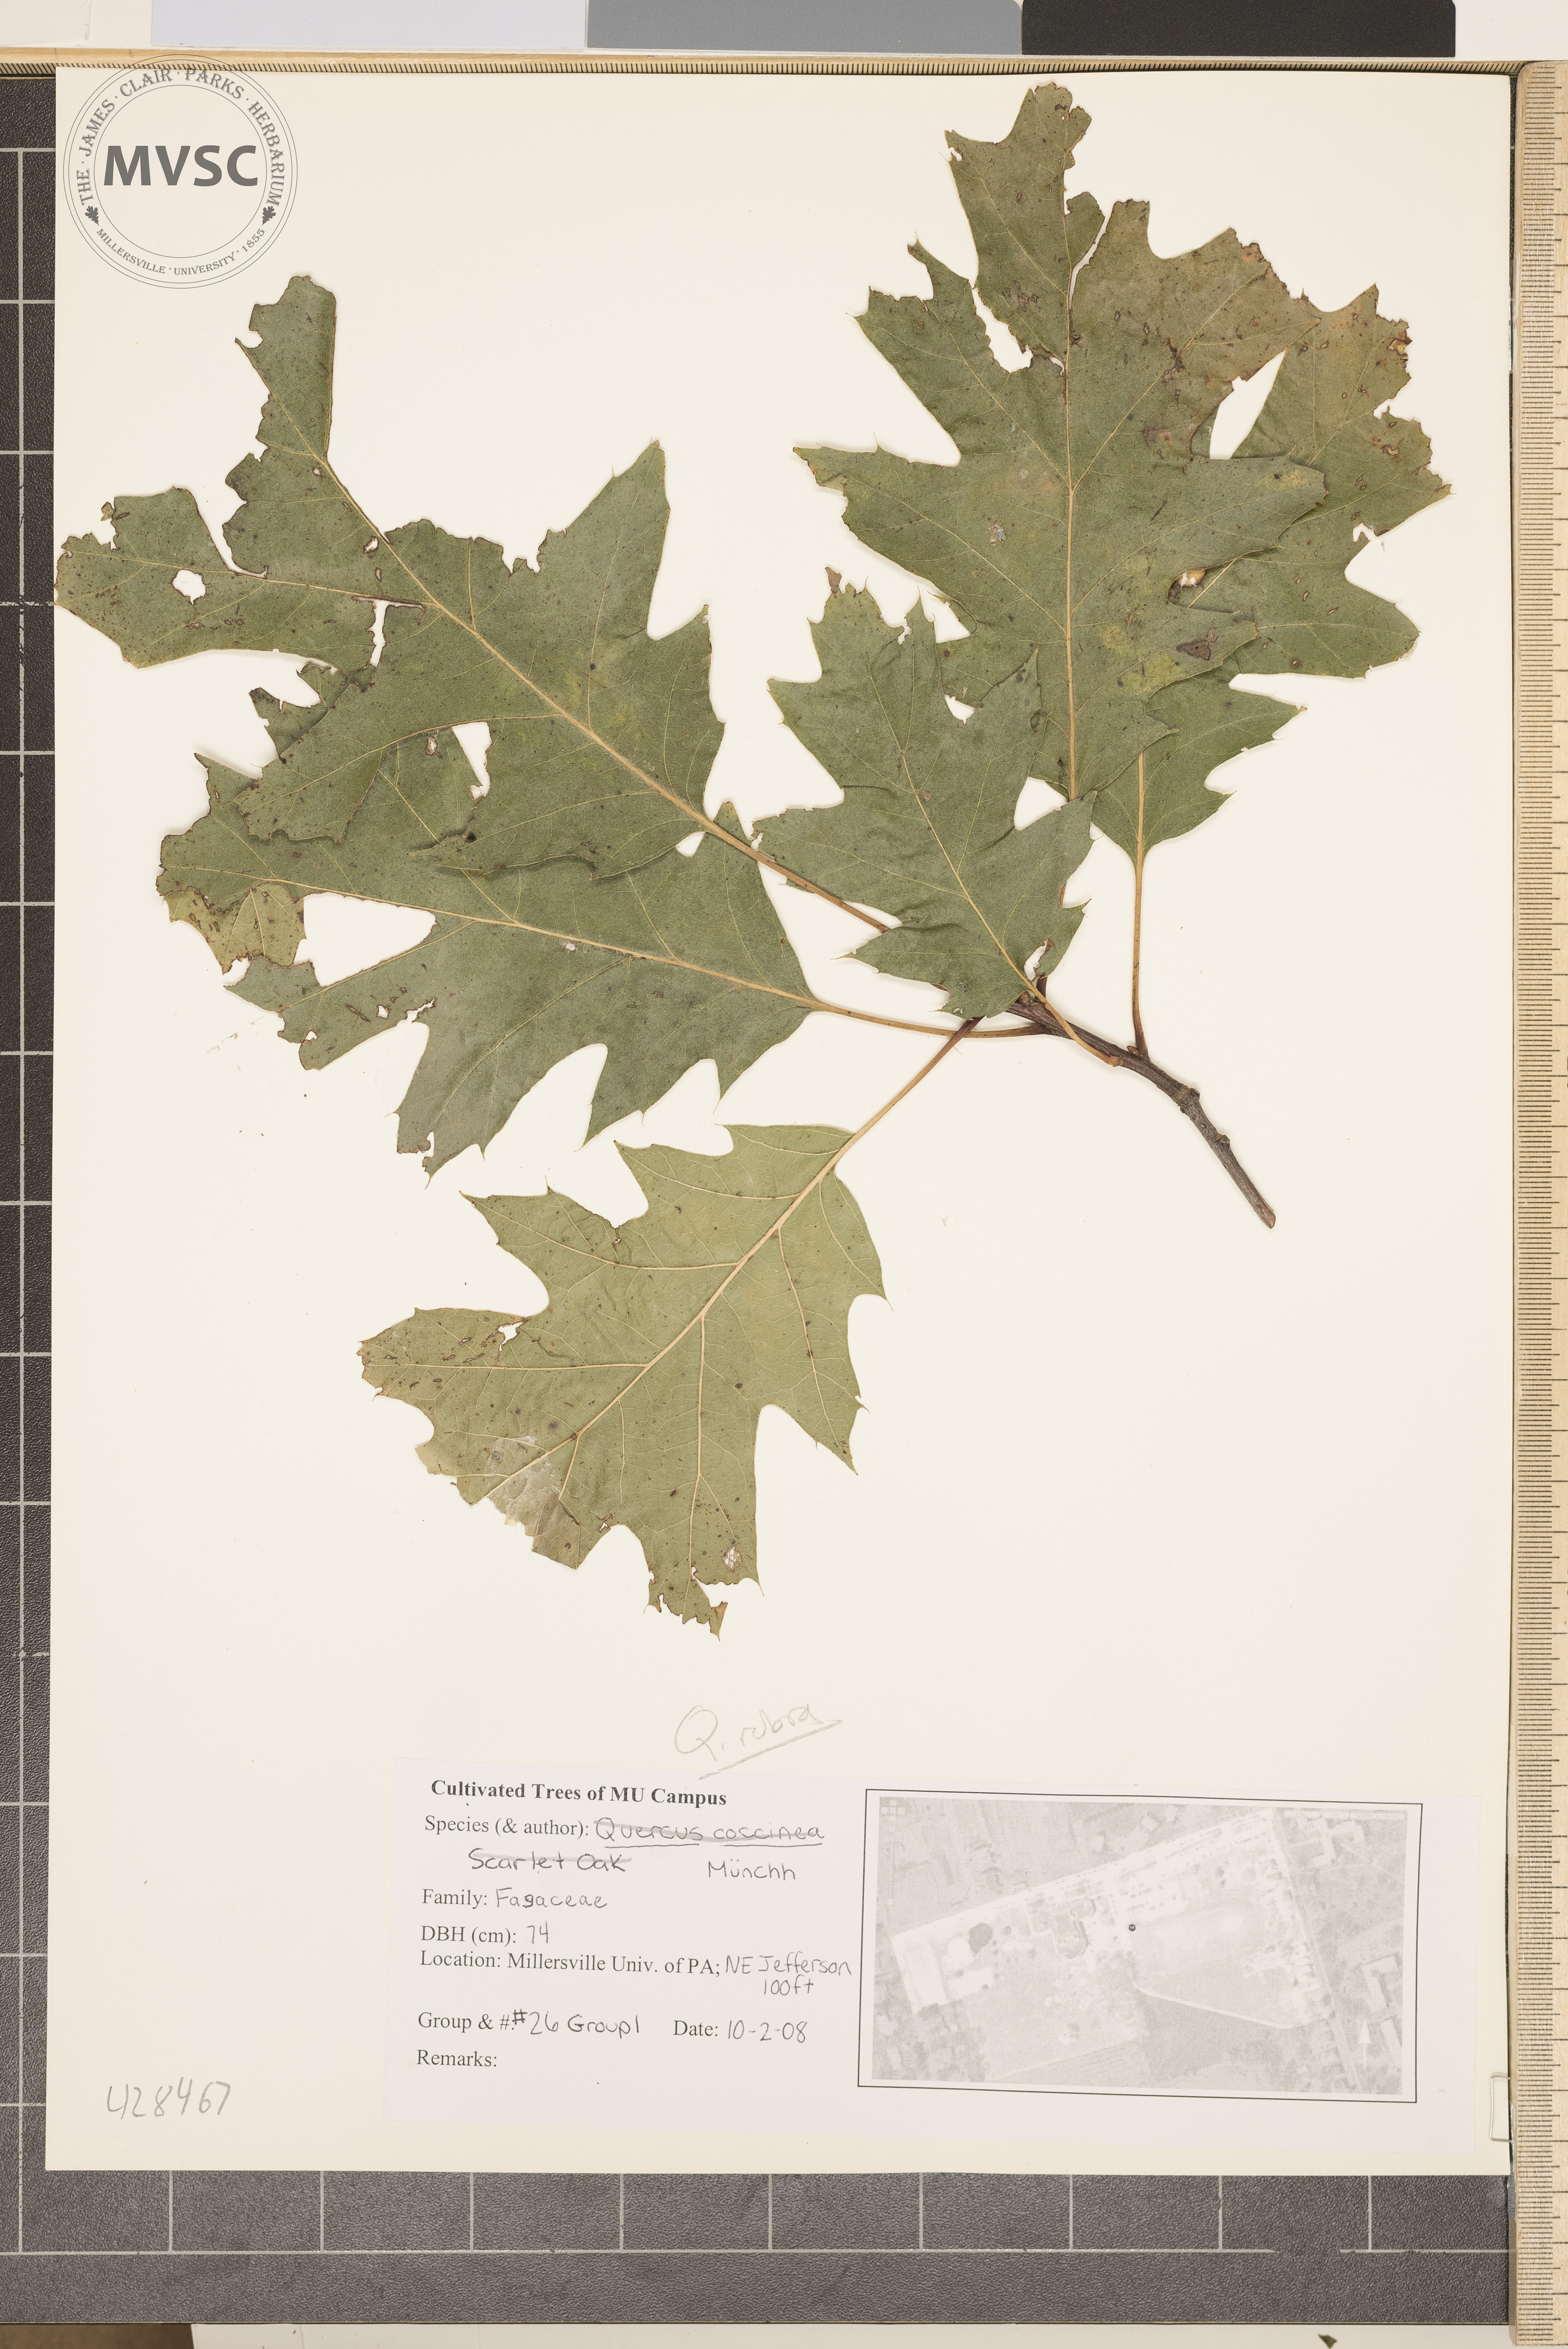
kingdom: Plantae
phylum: Tracheophyta
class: Magnoliopsida
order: Fagales
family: Fagaceae
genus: Quercus
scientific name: Quercus coccinea
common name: Scarlet Oak
